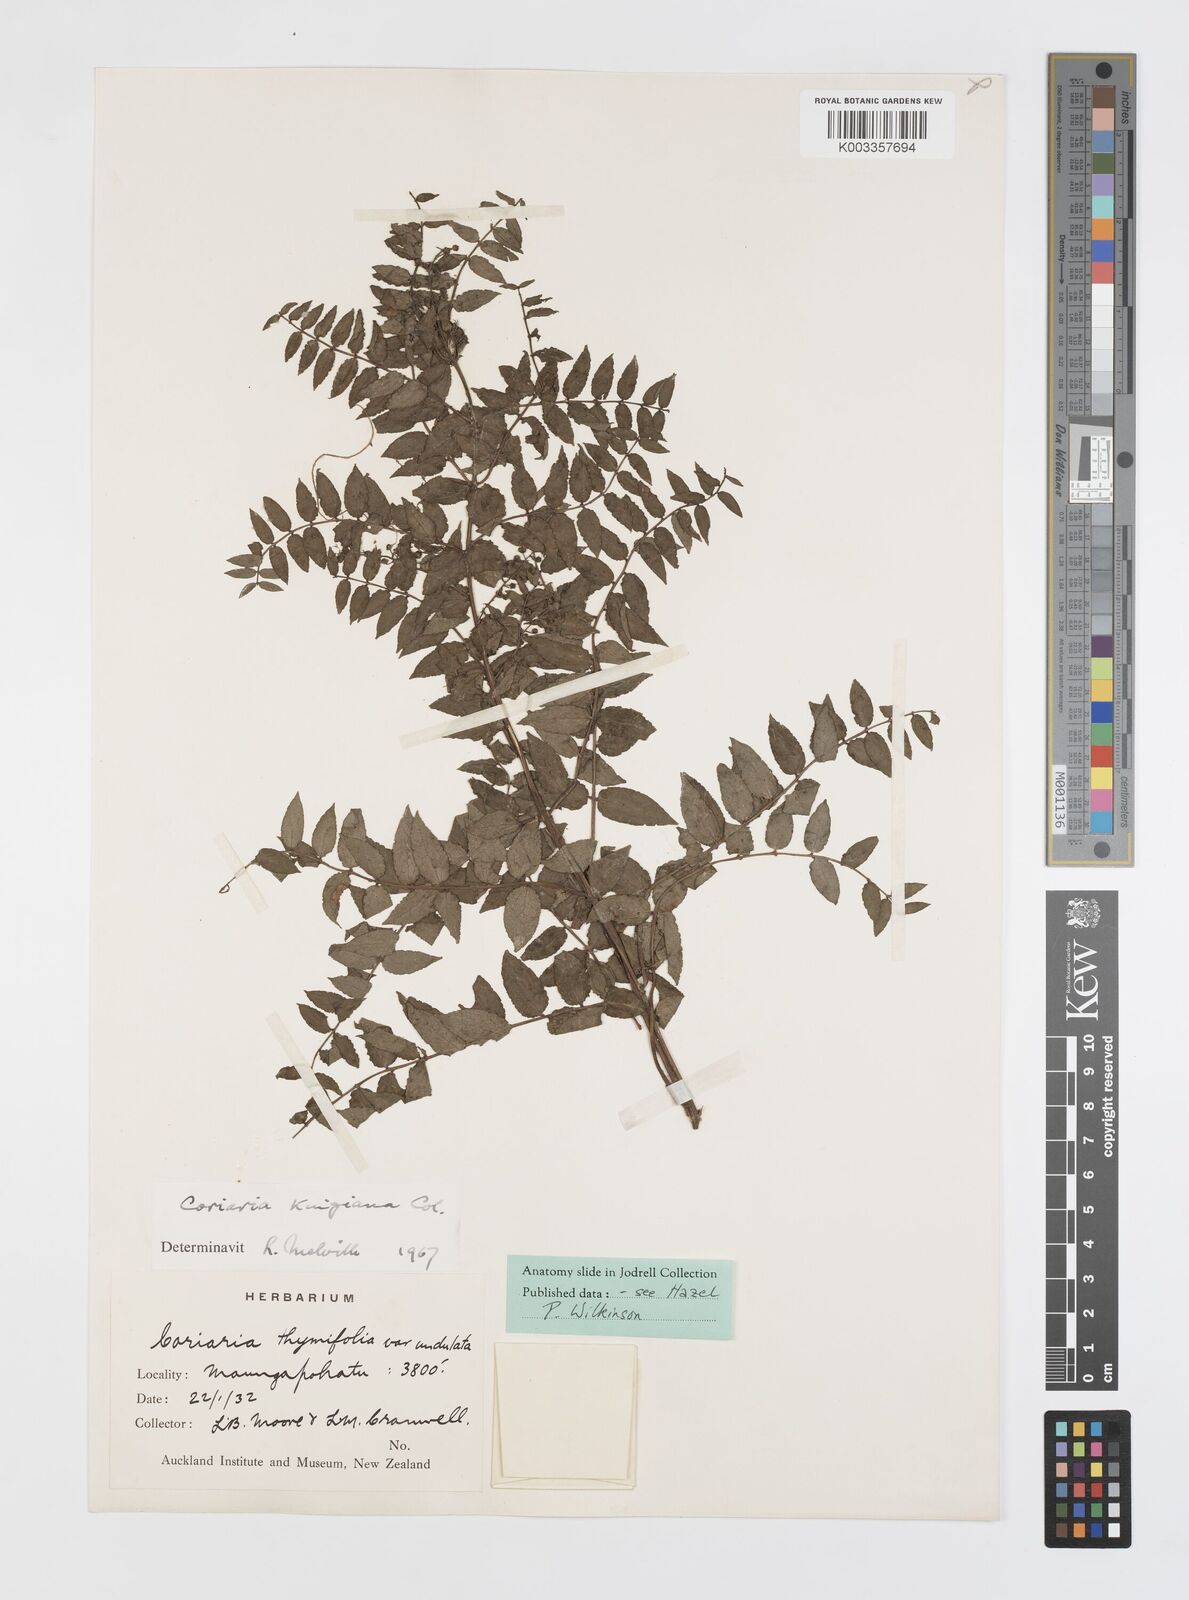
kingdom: Plantae
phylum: Tracheophyta
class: Magnoliopsida
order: Cucurbitales
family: Coriariaceae
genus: Coriaria
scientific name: Coriaria kingiana
